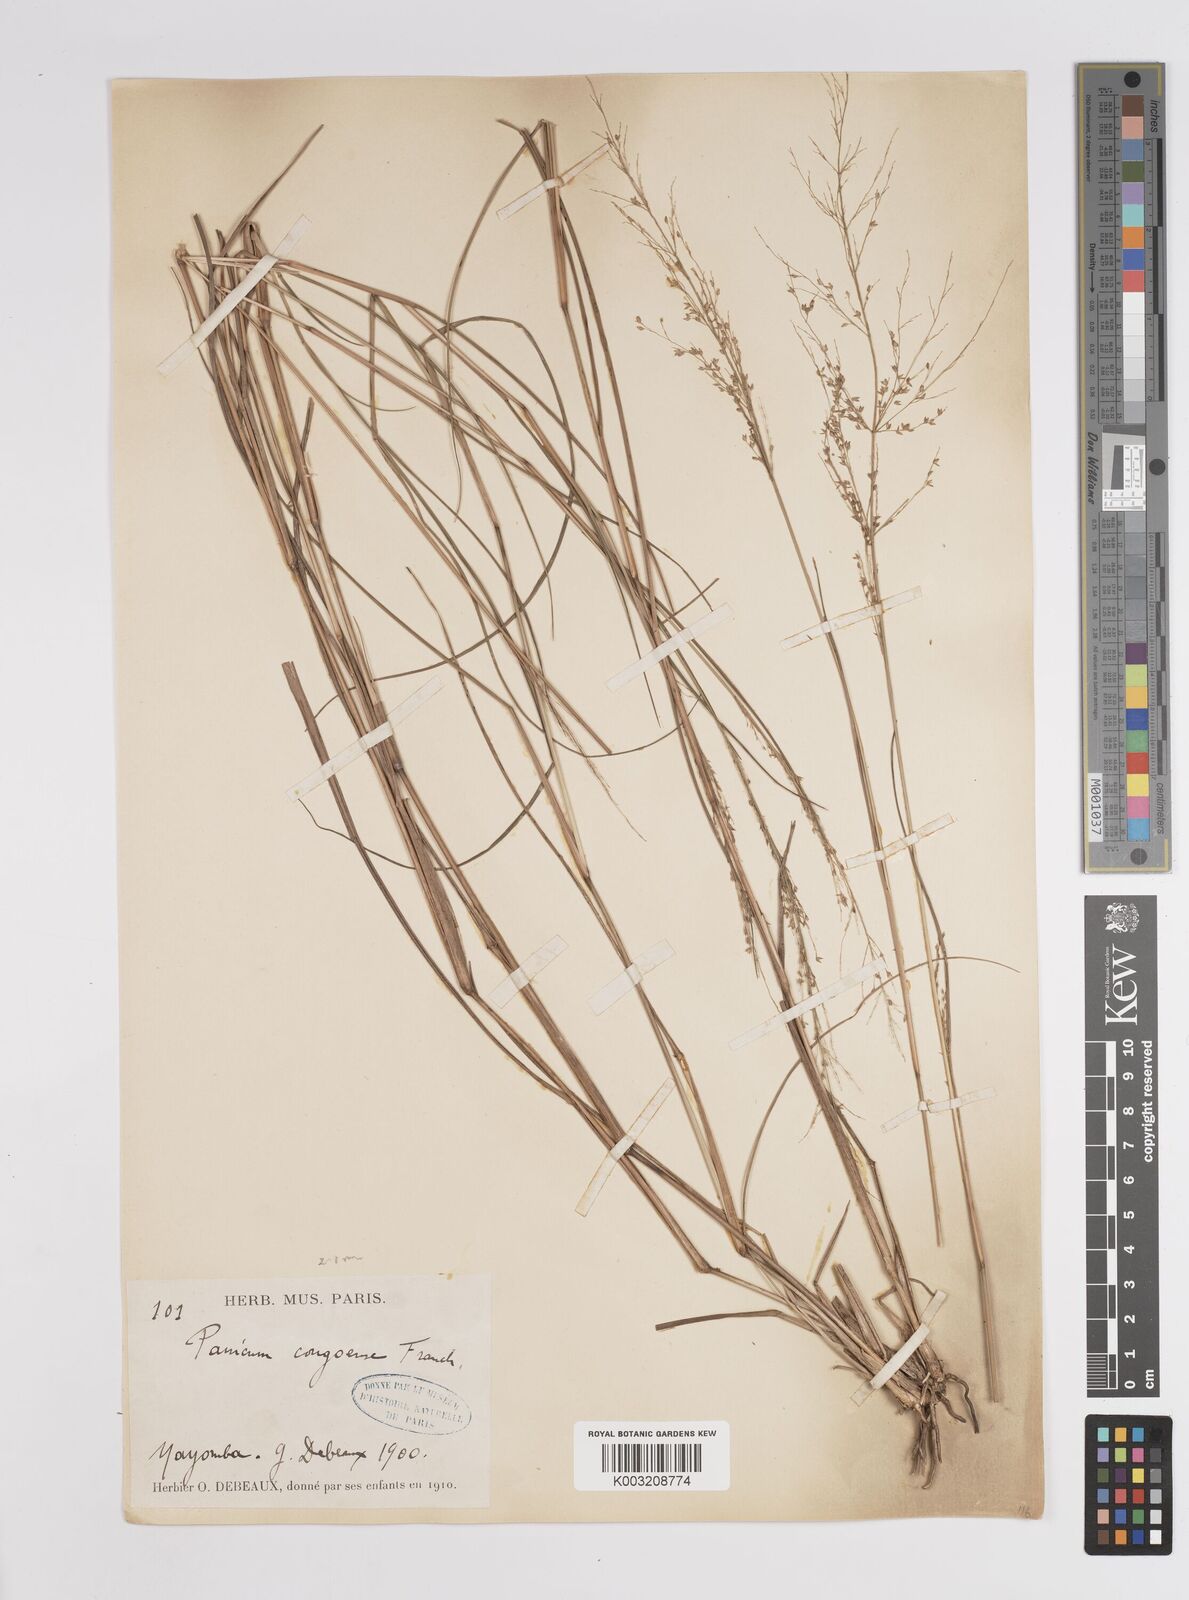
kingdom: Plantae
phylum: Tracheophyta
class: Liliopsida
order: Poales
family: Poaceae
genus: Panicum
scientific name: Panicum congoense
